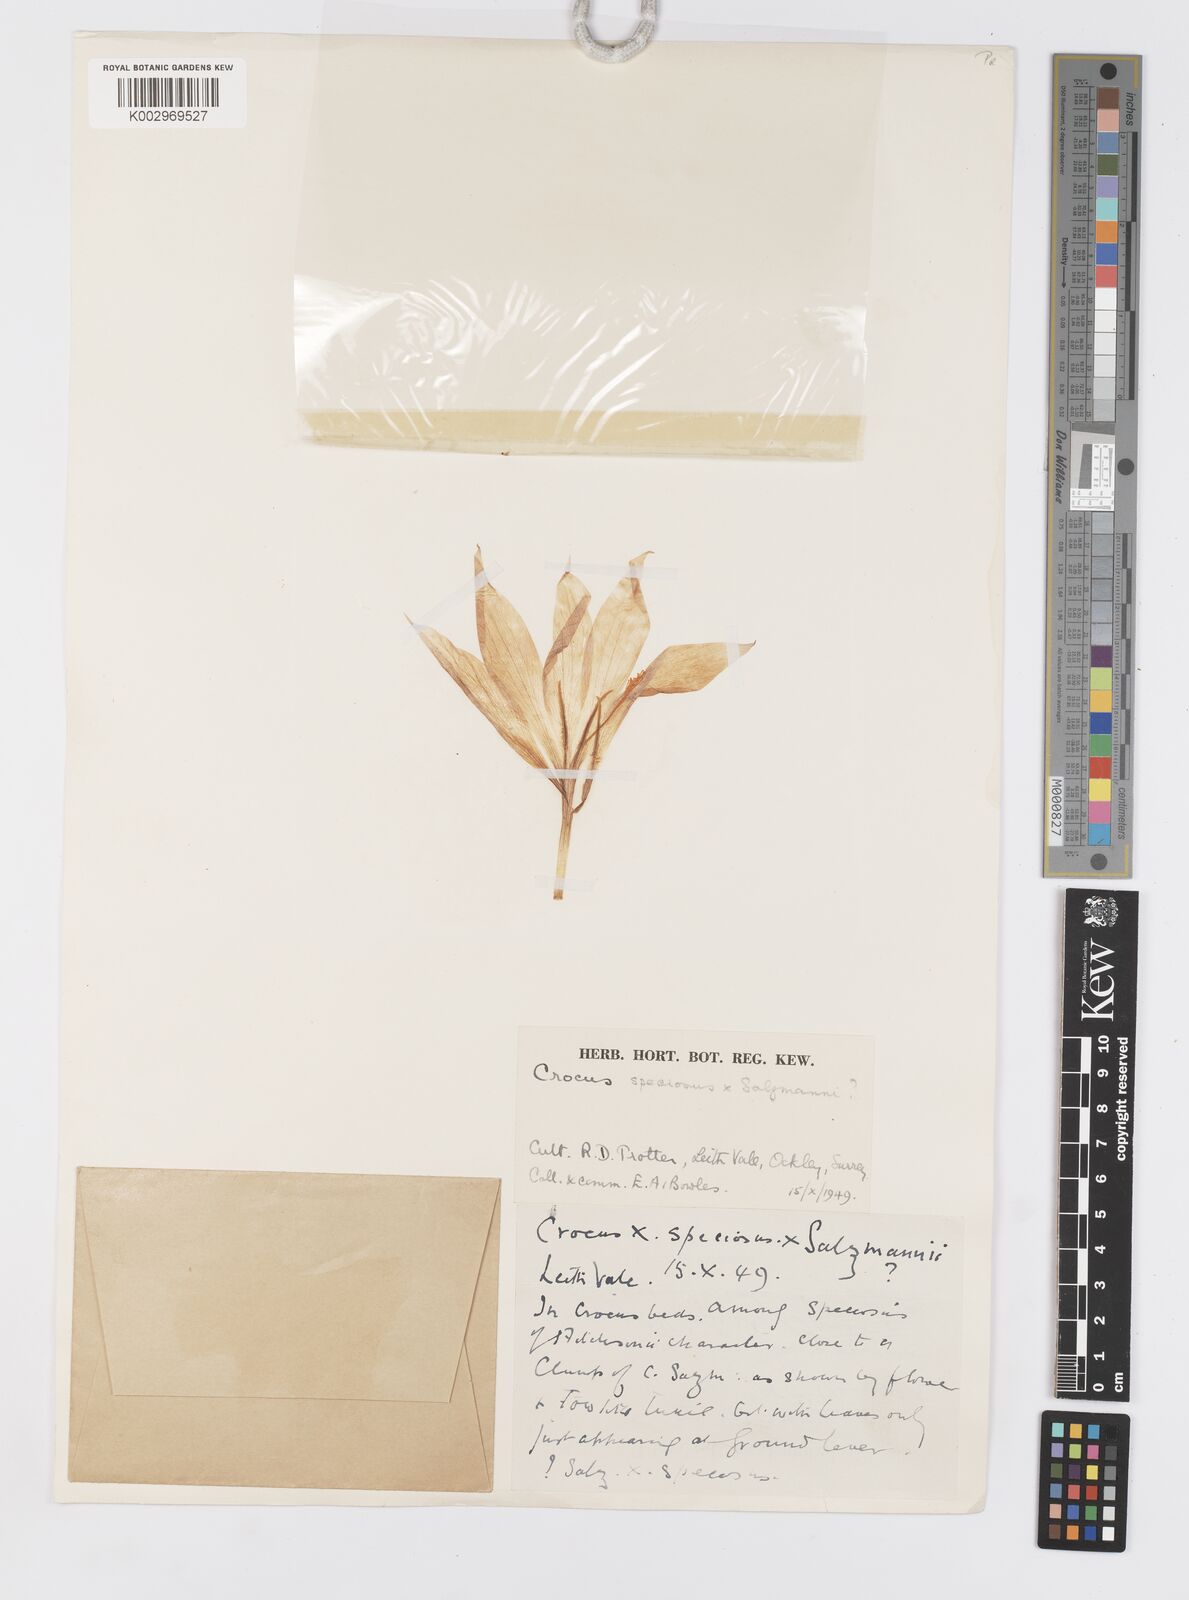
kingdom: Plantae
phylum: Tracheophyta
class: Liliopsida
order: Asparagales
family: Iridaceae
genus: Crocus
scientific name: Crocus speciosus
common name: Bieberstein's crocus
